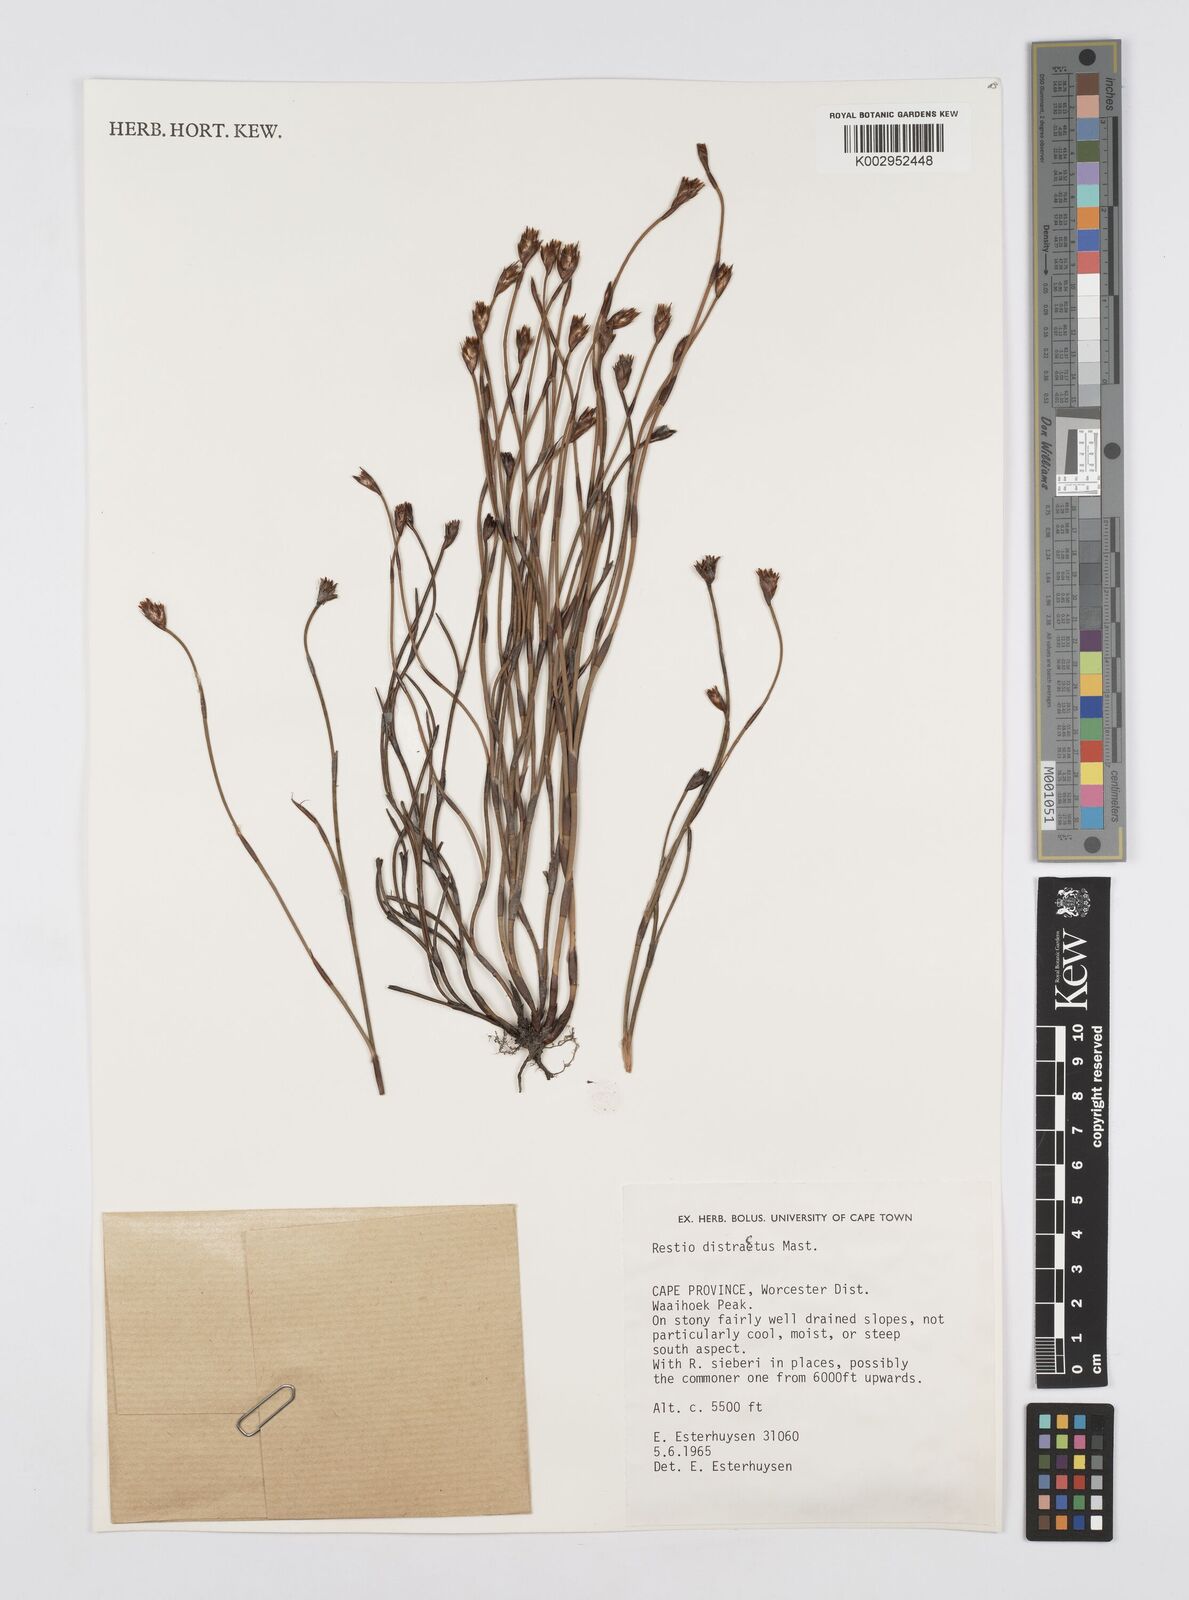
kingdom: Plantae
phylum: Tracheophyta
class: Liliopsida
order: Poales
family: Restionaceae
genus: Restio
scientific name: Restio distractus
